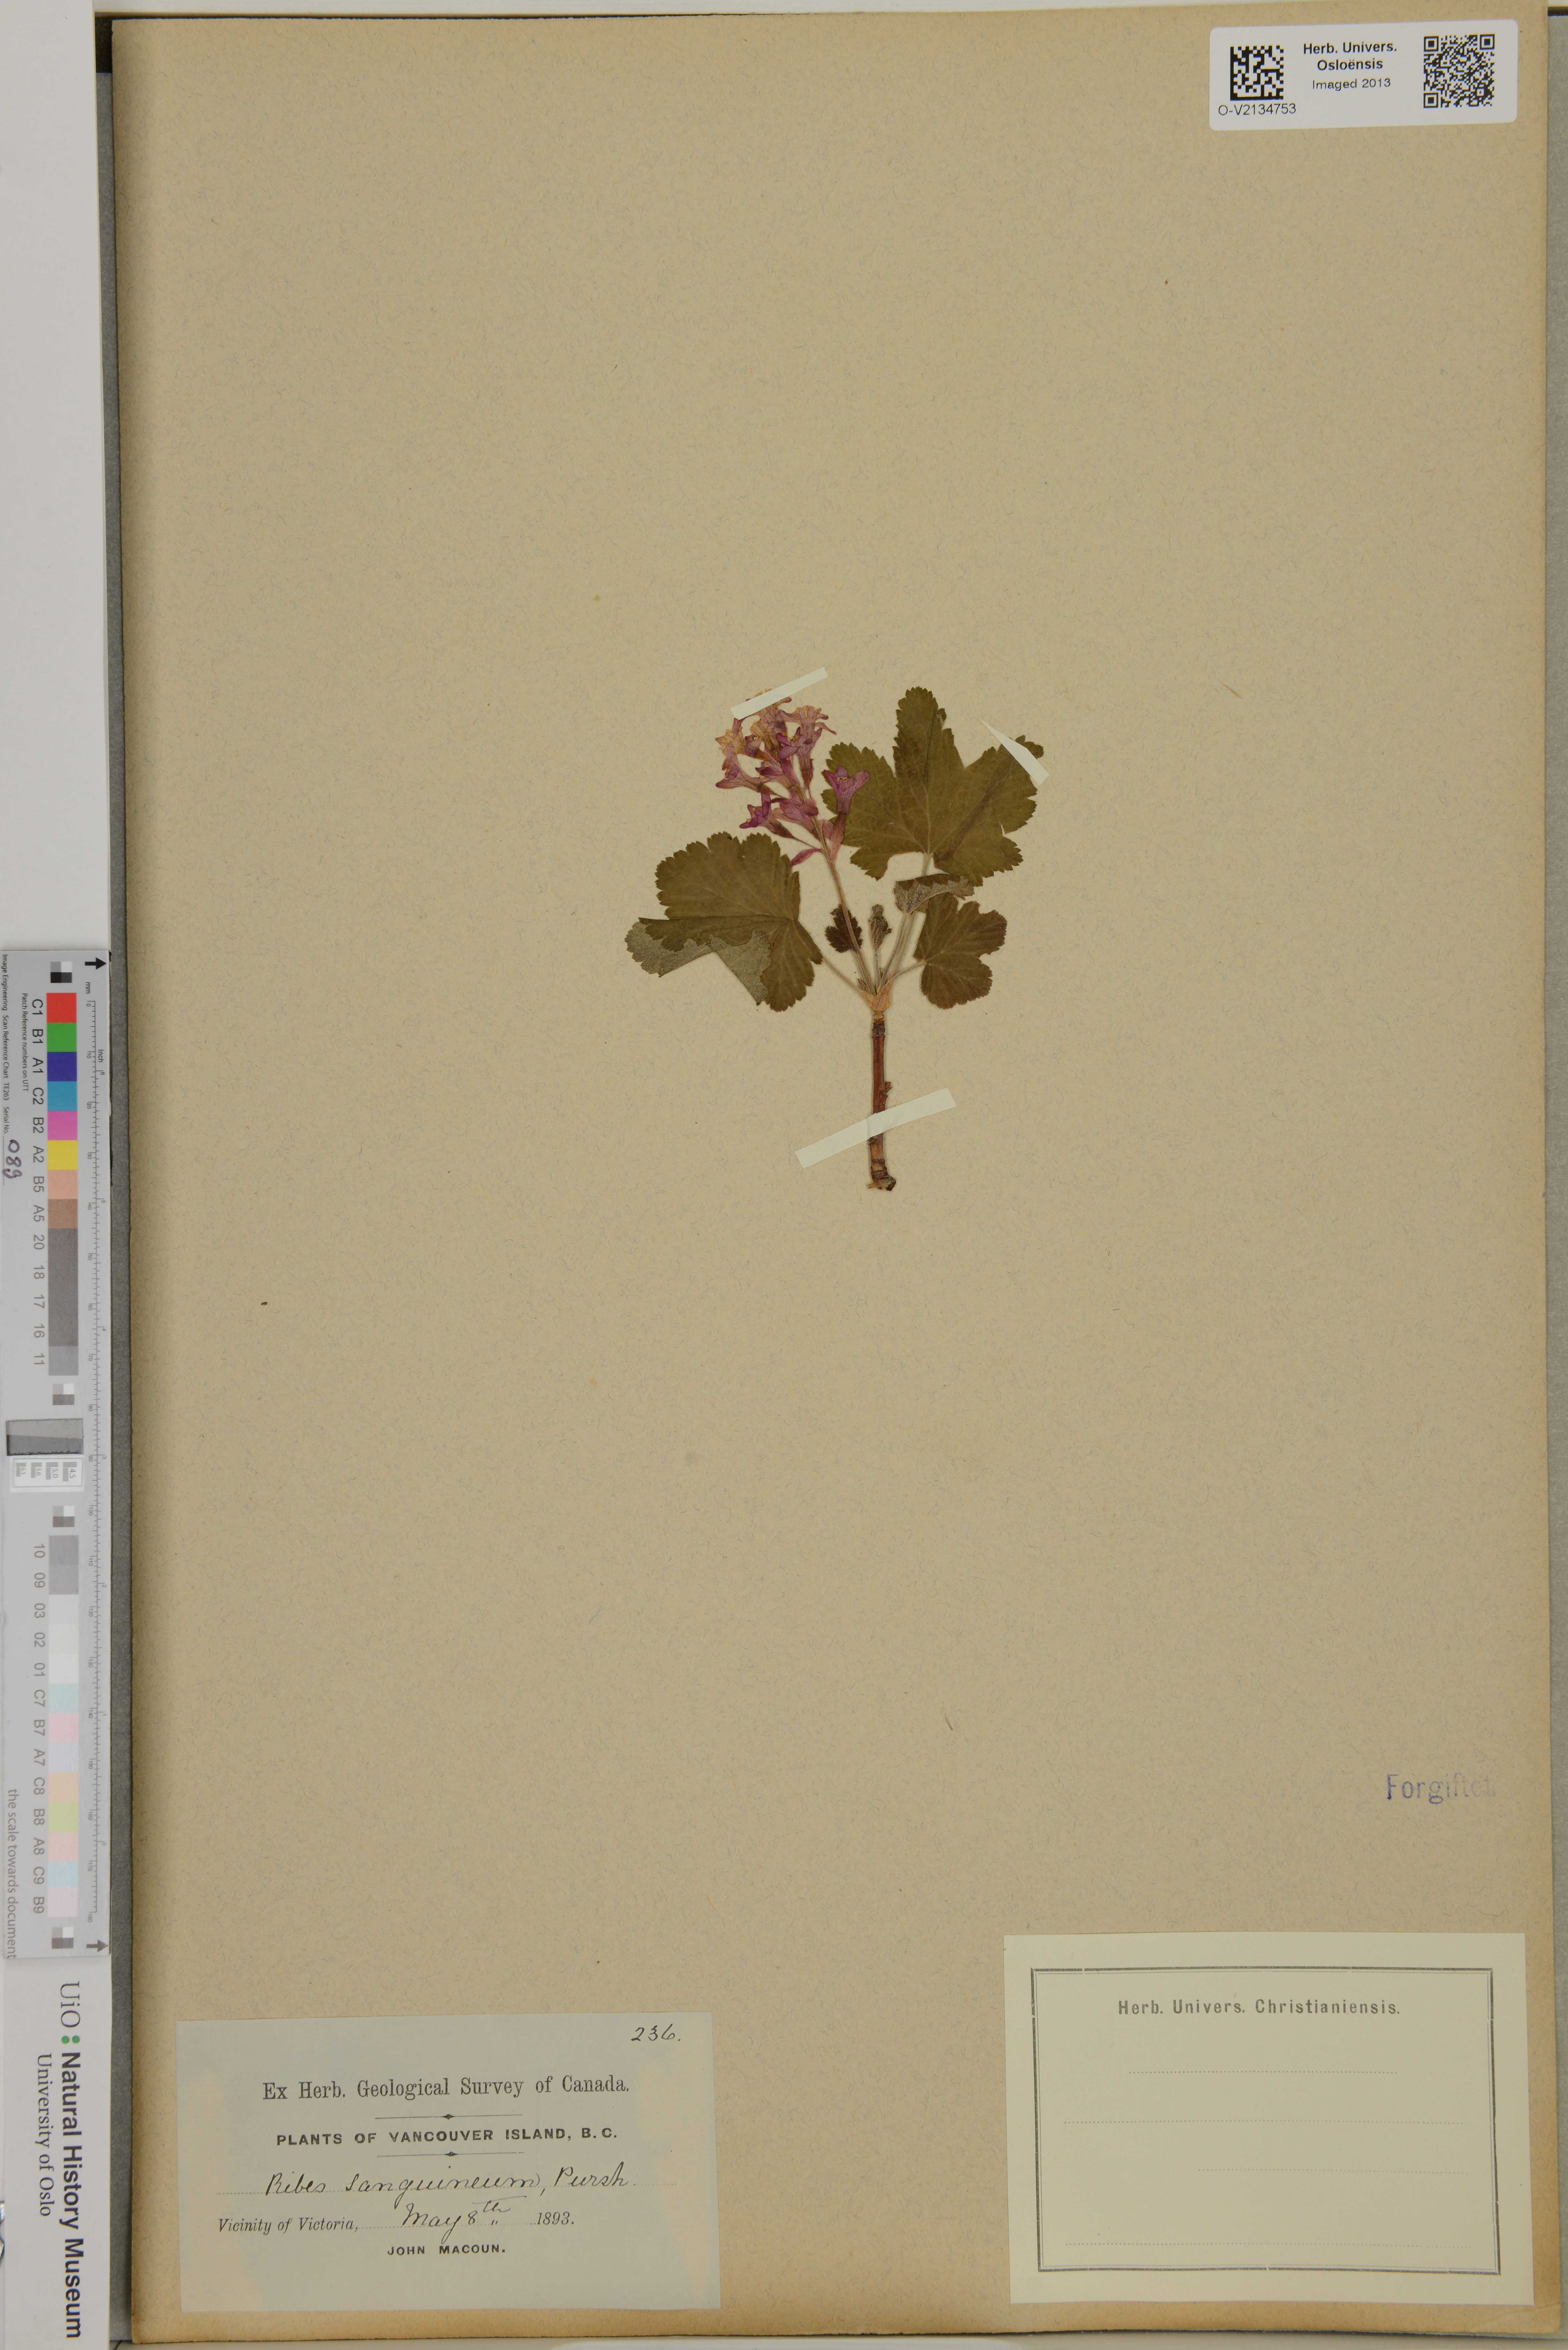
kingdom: Plantae
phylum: Tracheophyta
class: Magnoliopsida
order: Saxifragales
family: Grossulariaceae
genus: Ribes
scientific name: Ribes sanguineum
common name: Flowering currant
